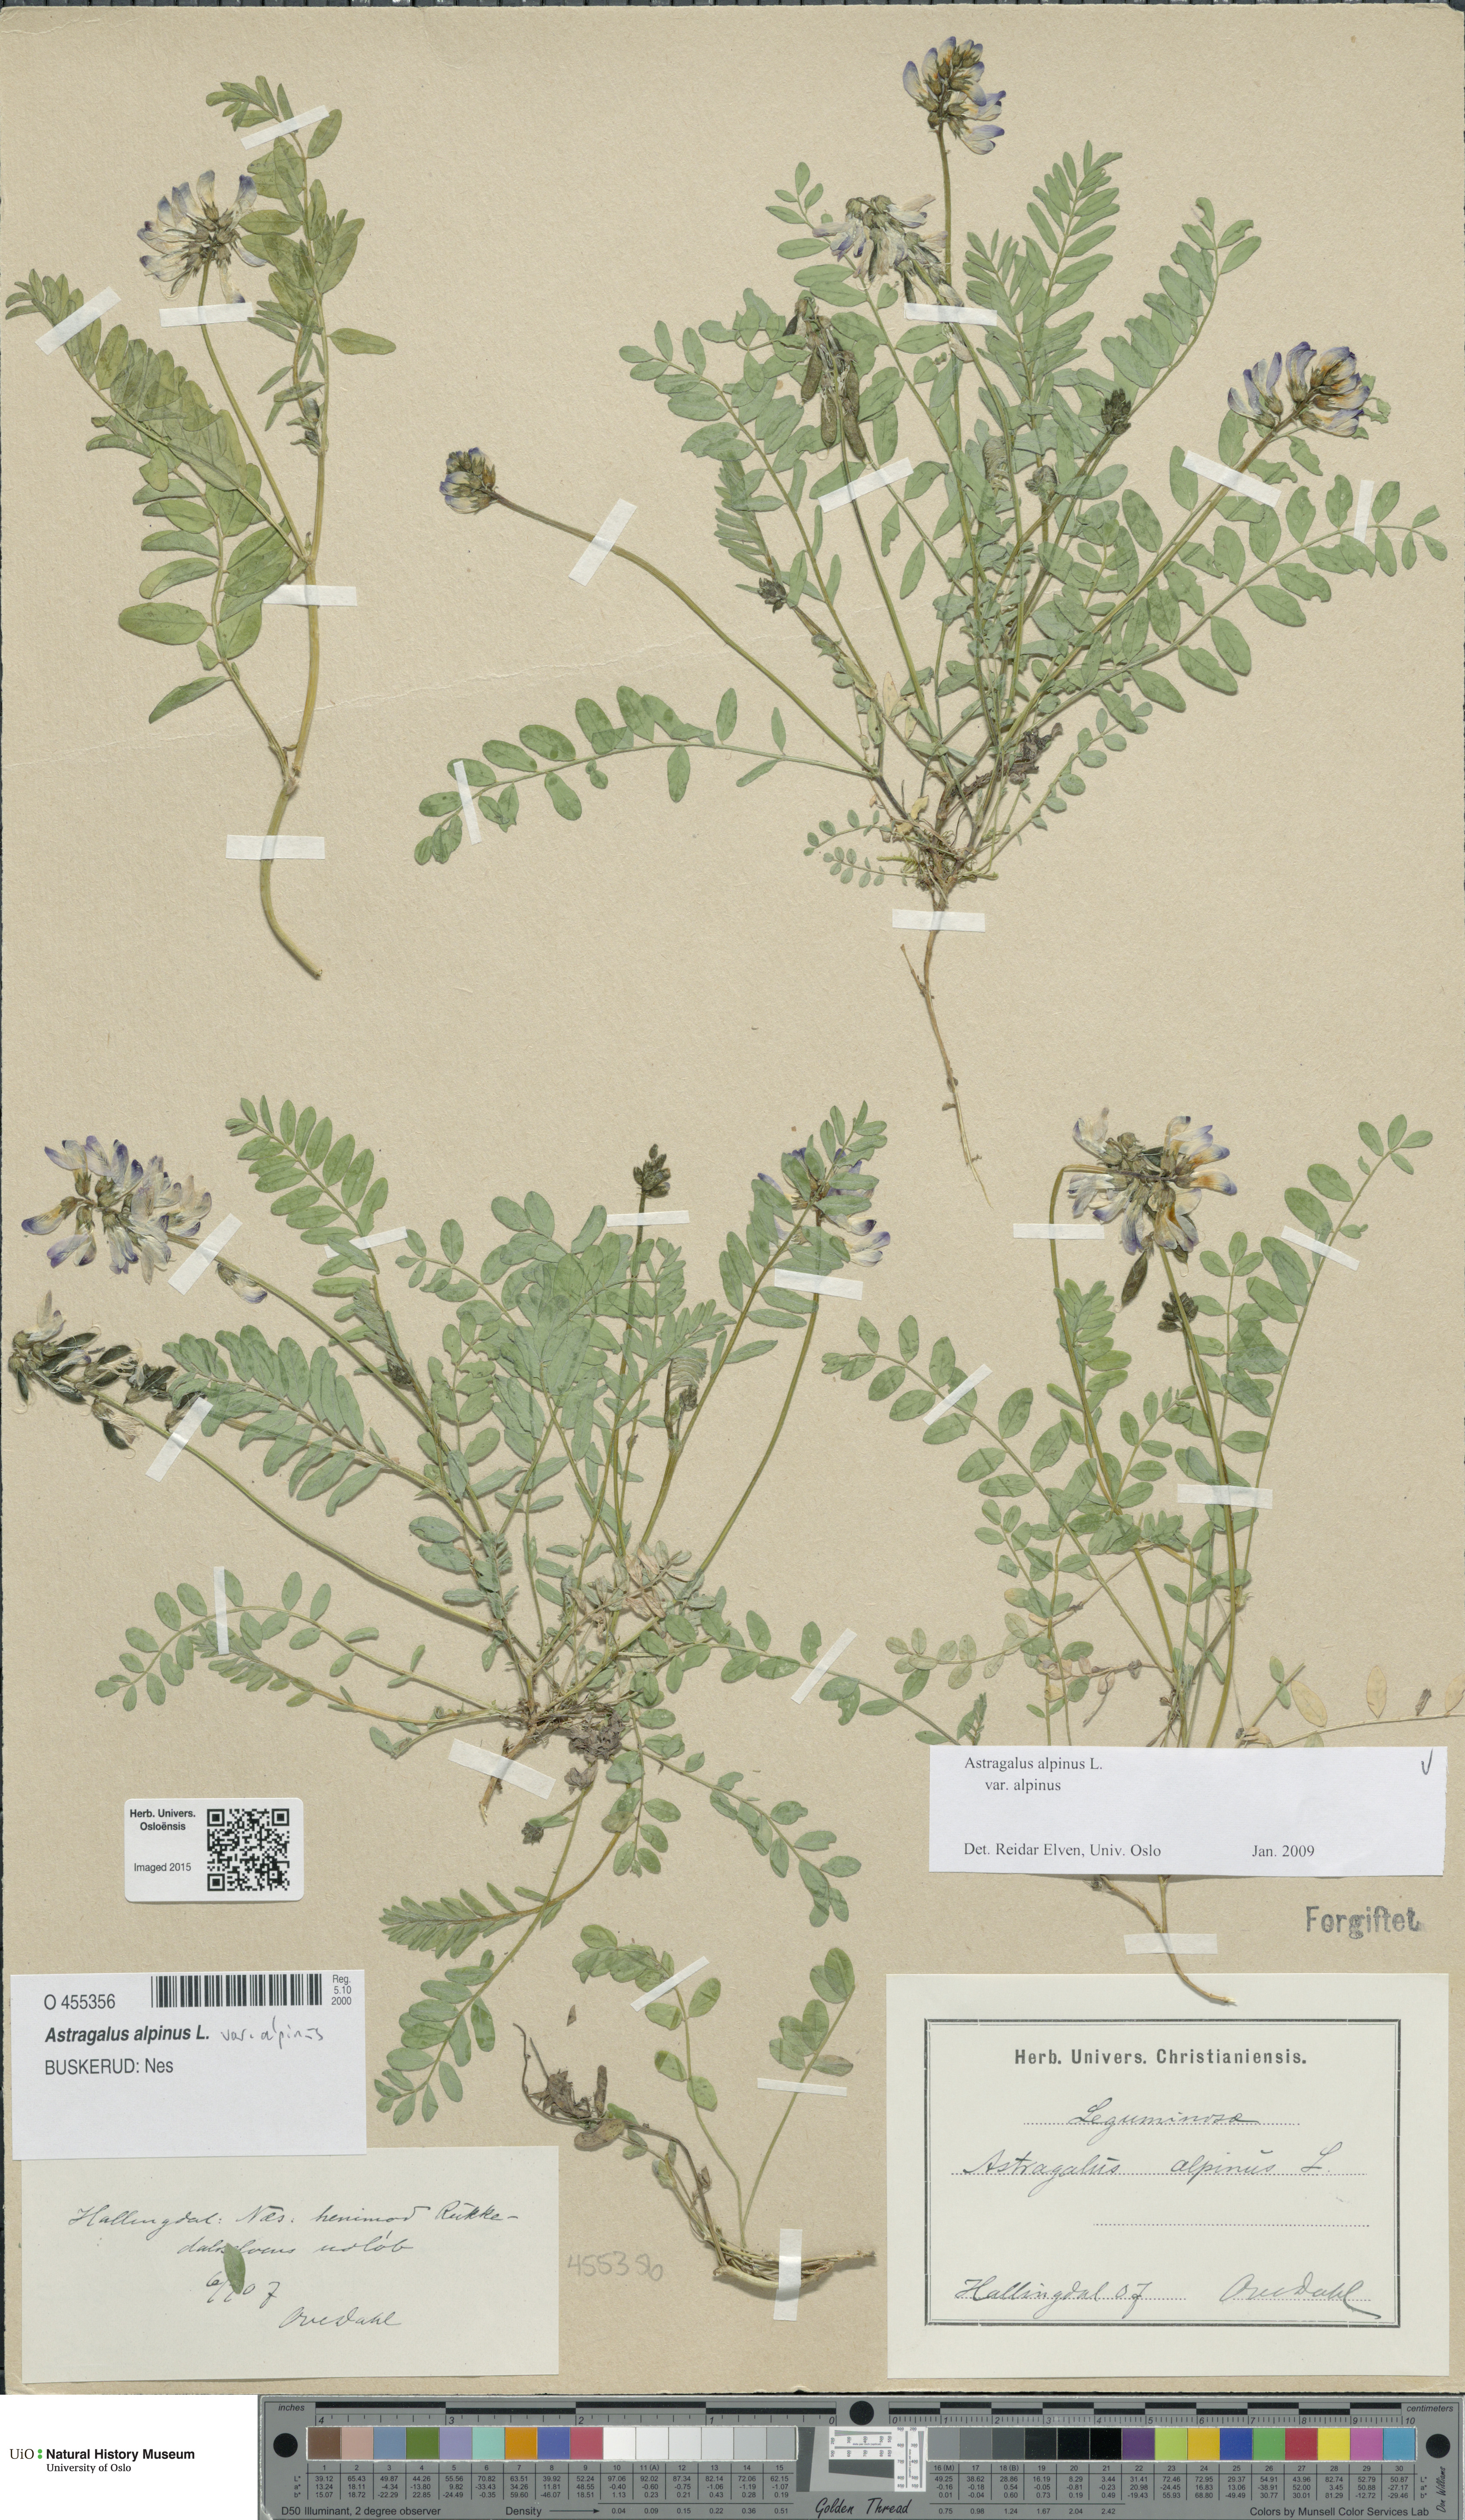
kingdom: Plantae
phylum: Tracheophyta
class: Magnoliopsida
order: Fabales
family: Fabaceae
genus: Astragalus
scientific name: Astragalus alpinus
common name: Alpine milk-vetch
